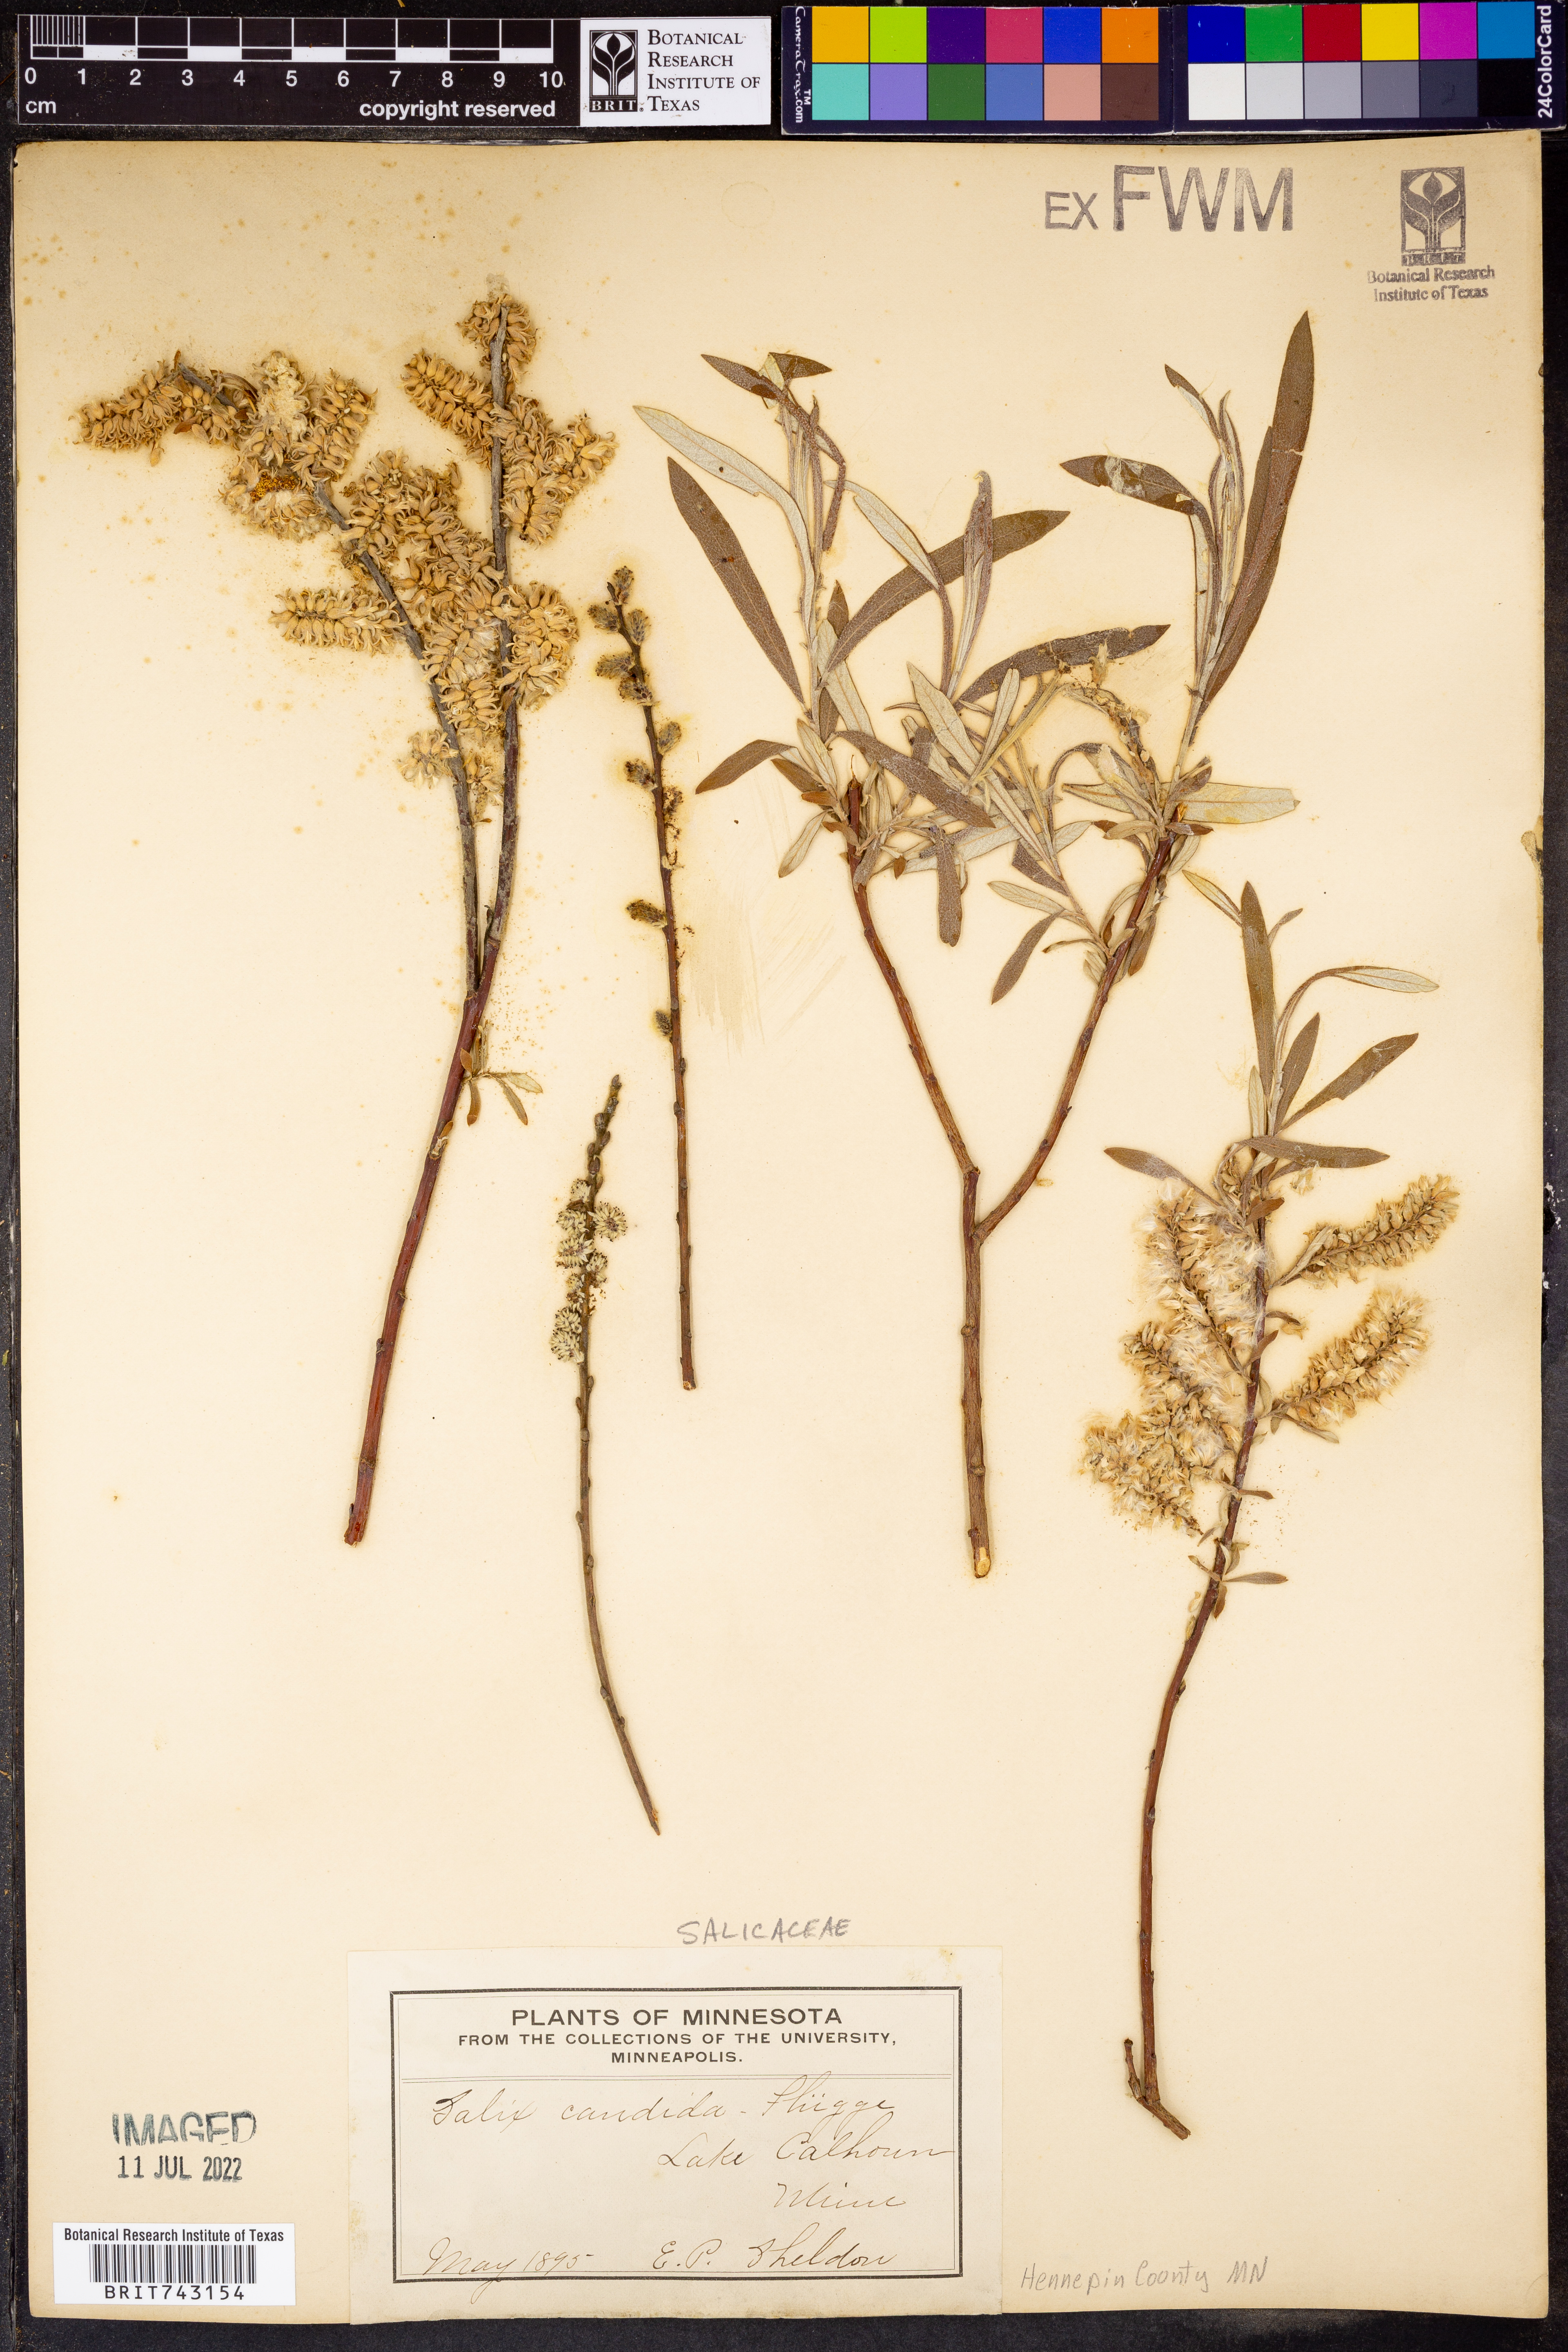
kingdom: Plantae
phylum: Tracheophyta
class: Magnoliopsida
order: Malpighiales
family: Salicaceae
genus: Salix
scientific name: Salix candida
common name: Hoary willow
